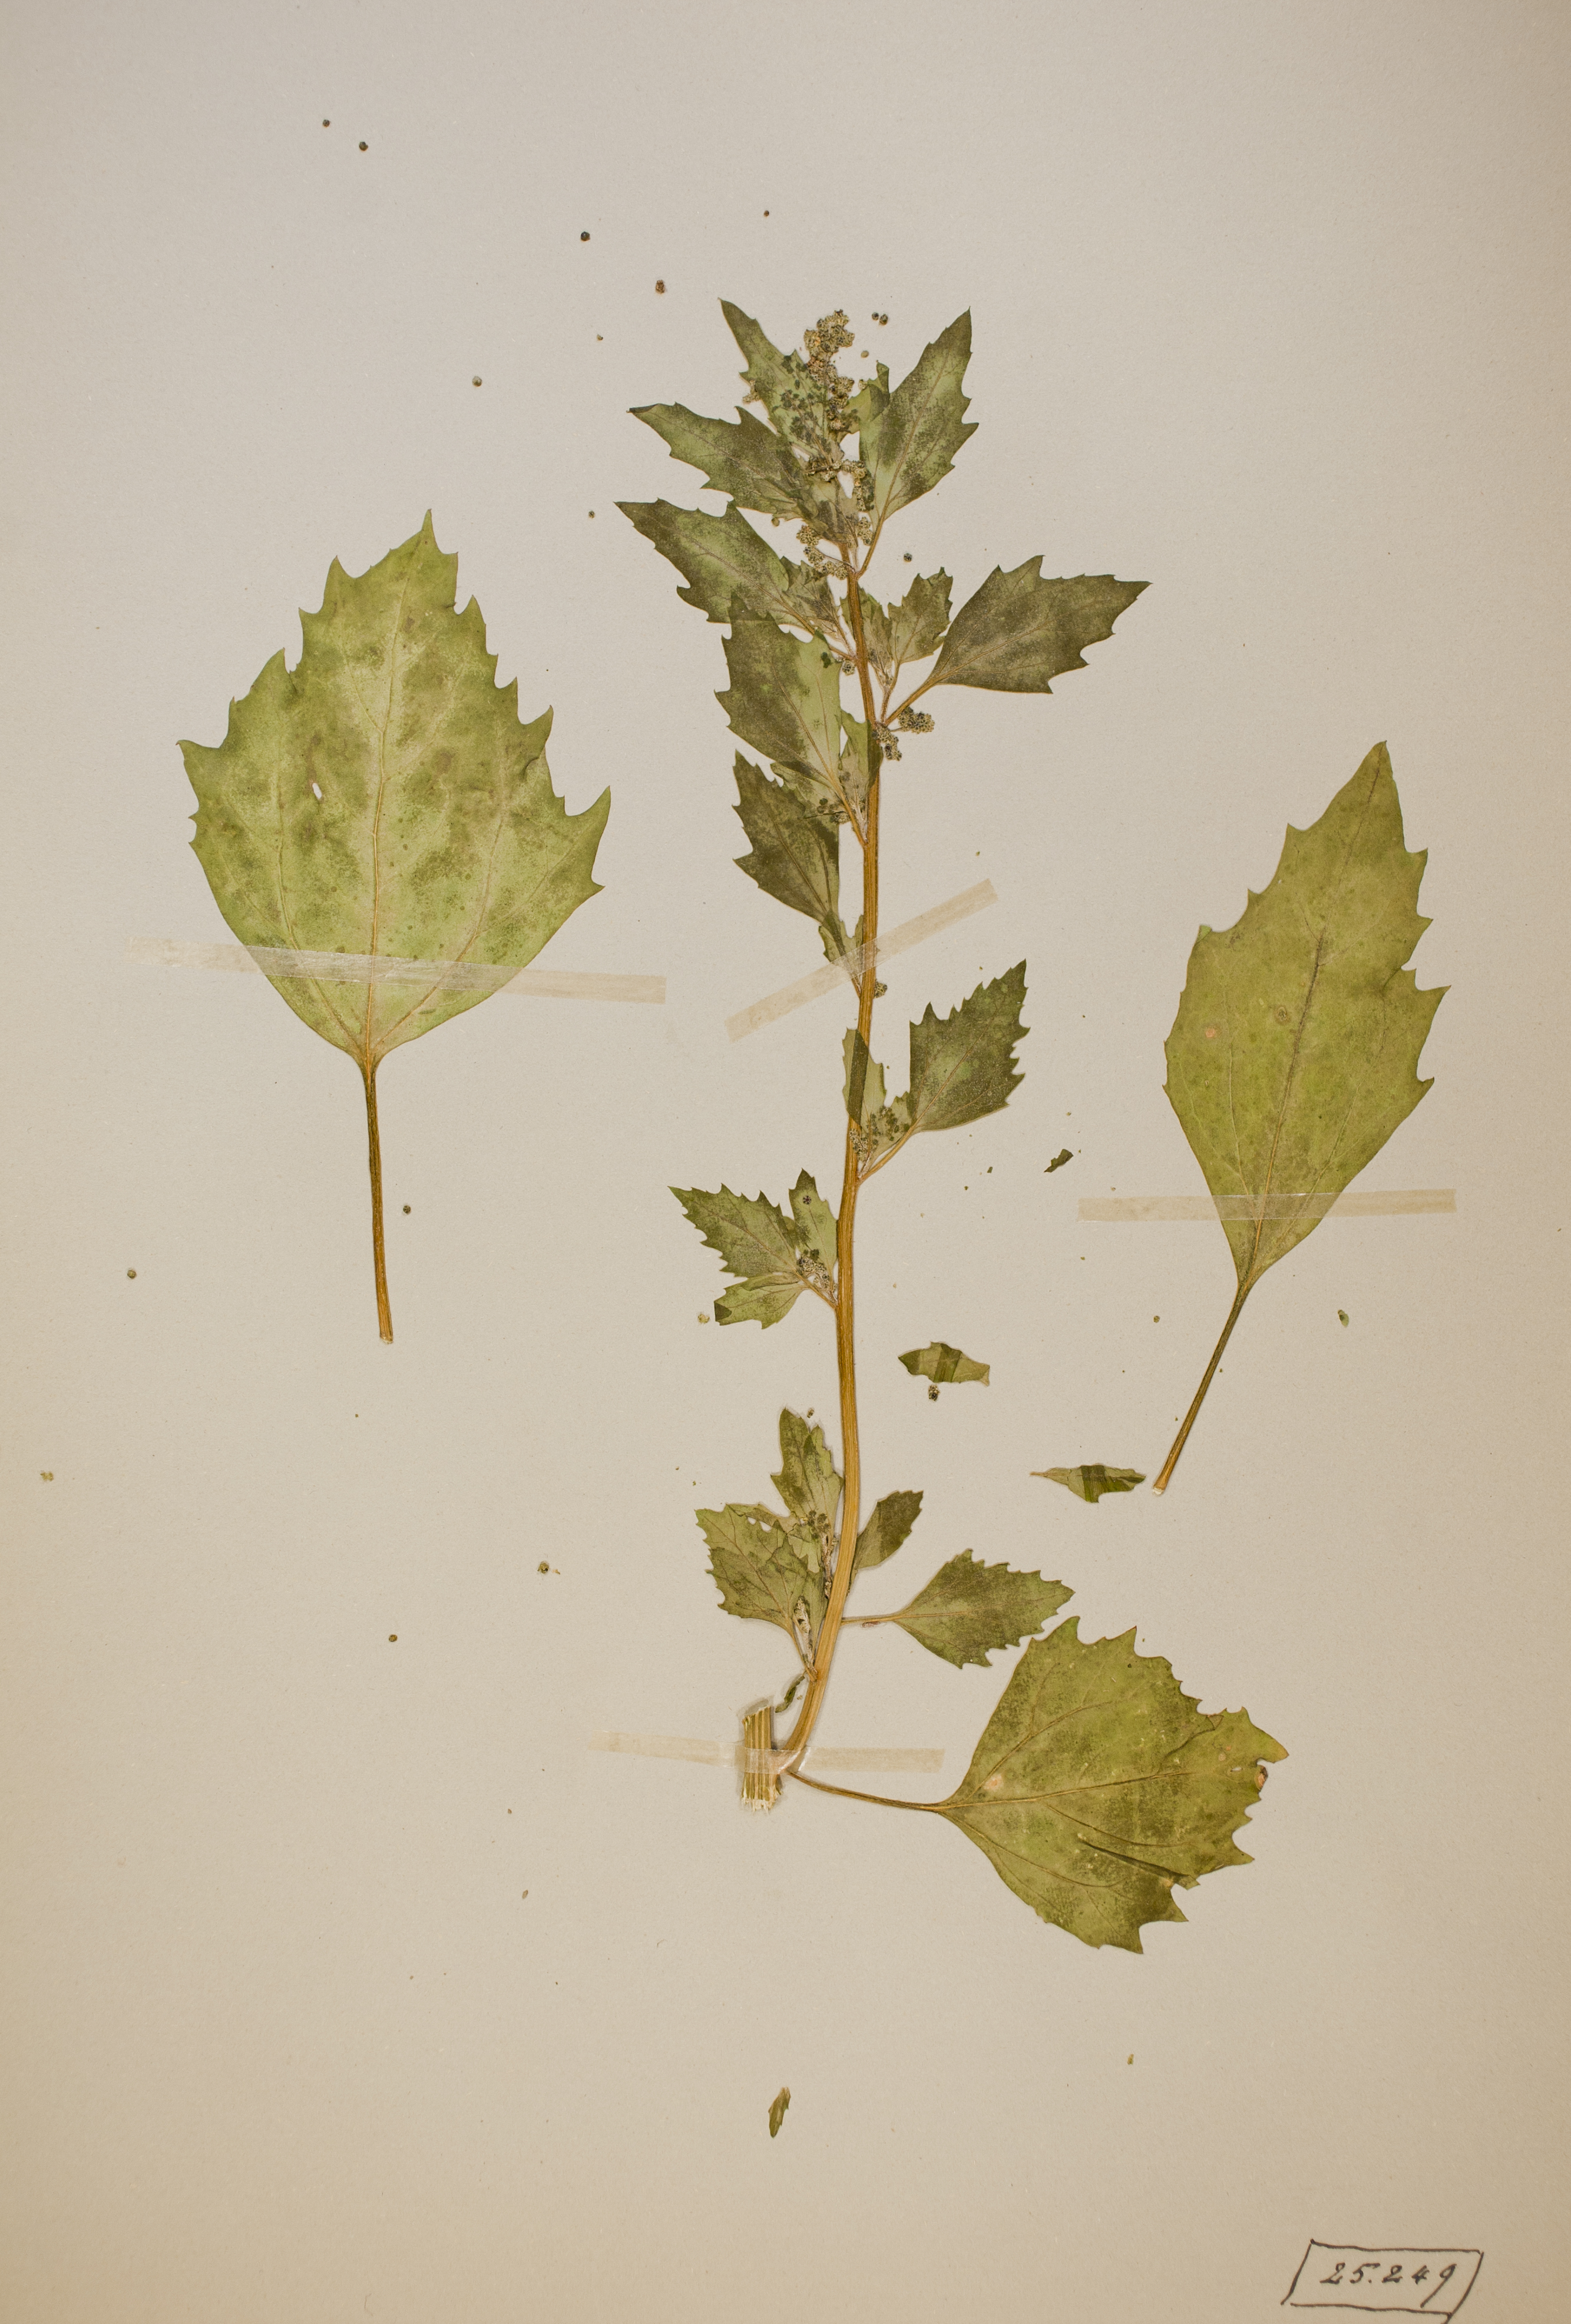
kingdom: Plantae
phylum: Tracheophyta
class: Magnoliopsida
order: Caryophyllales
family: Amaranthaceae
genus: Chenopodiastrum
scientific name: Chenopodiastrum murale
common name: Sowbane
